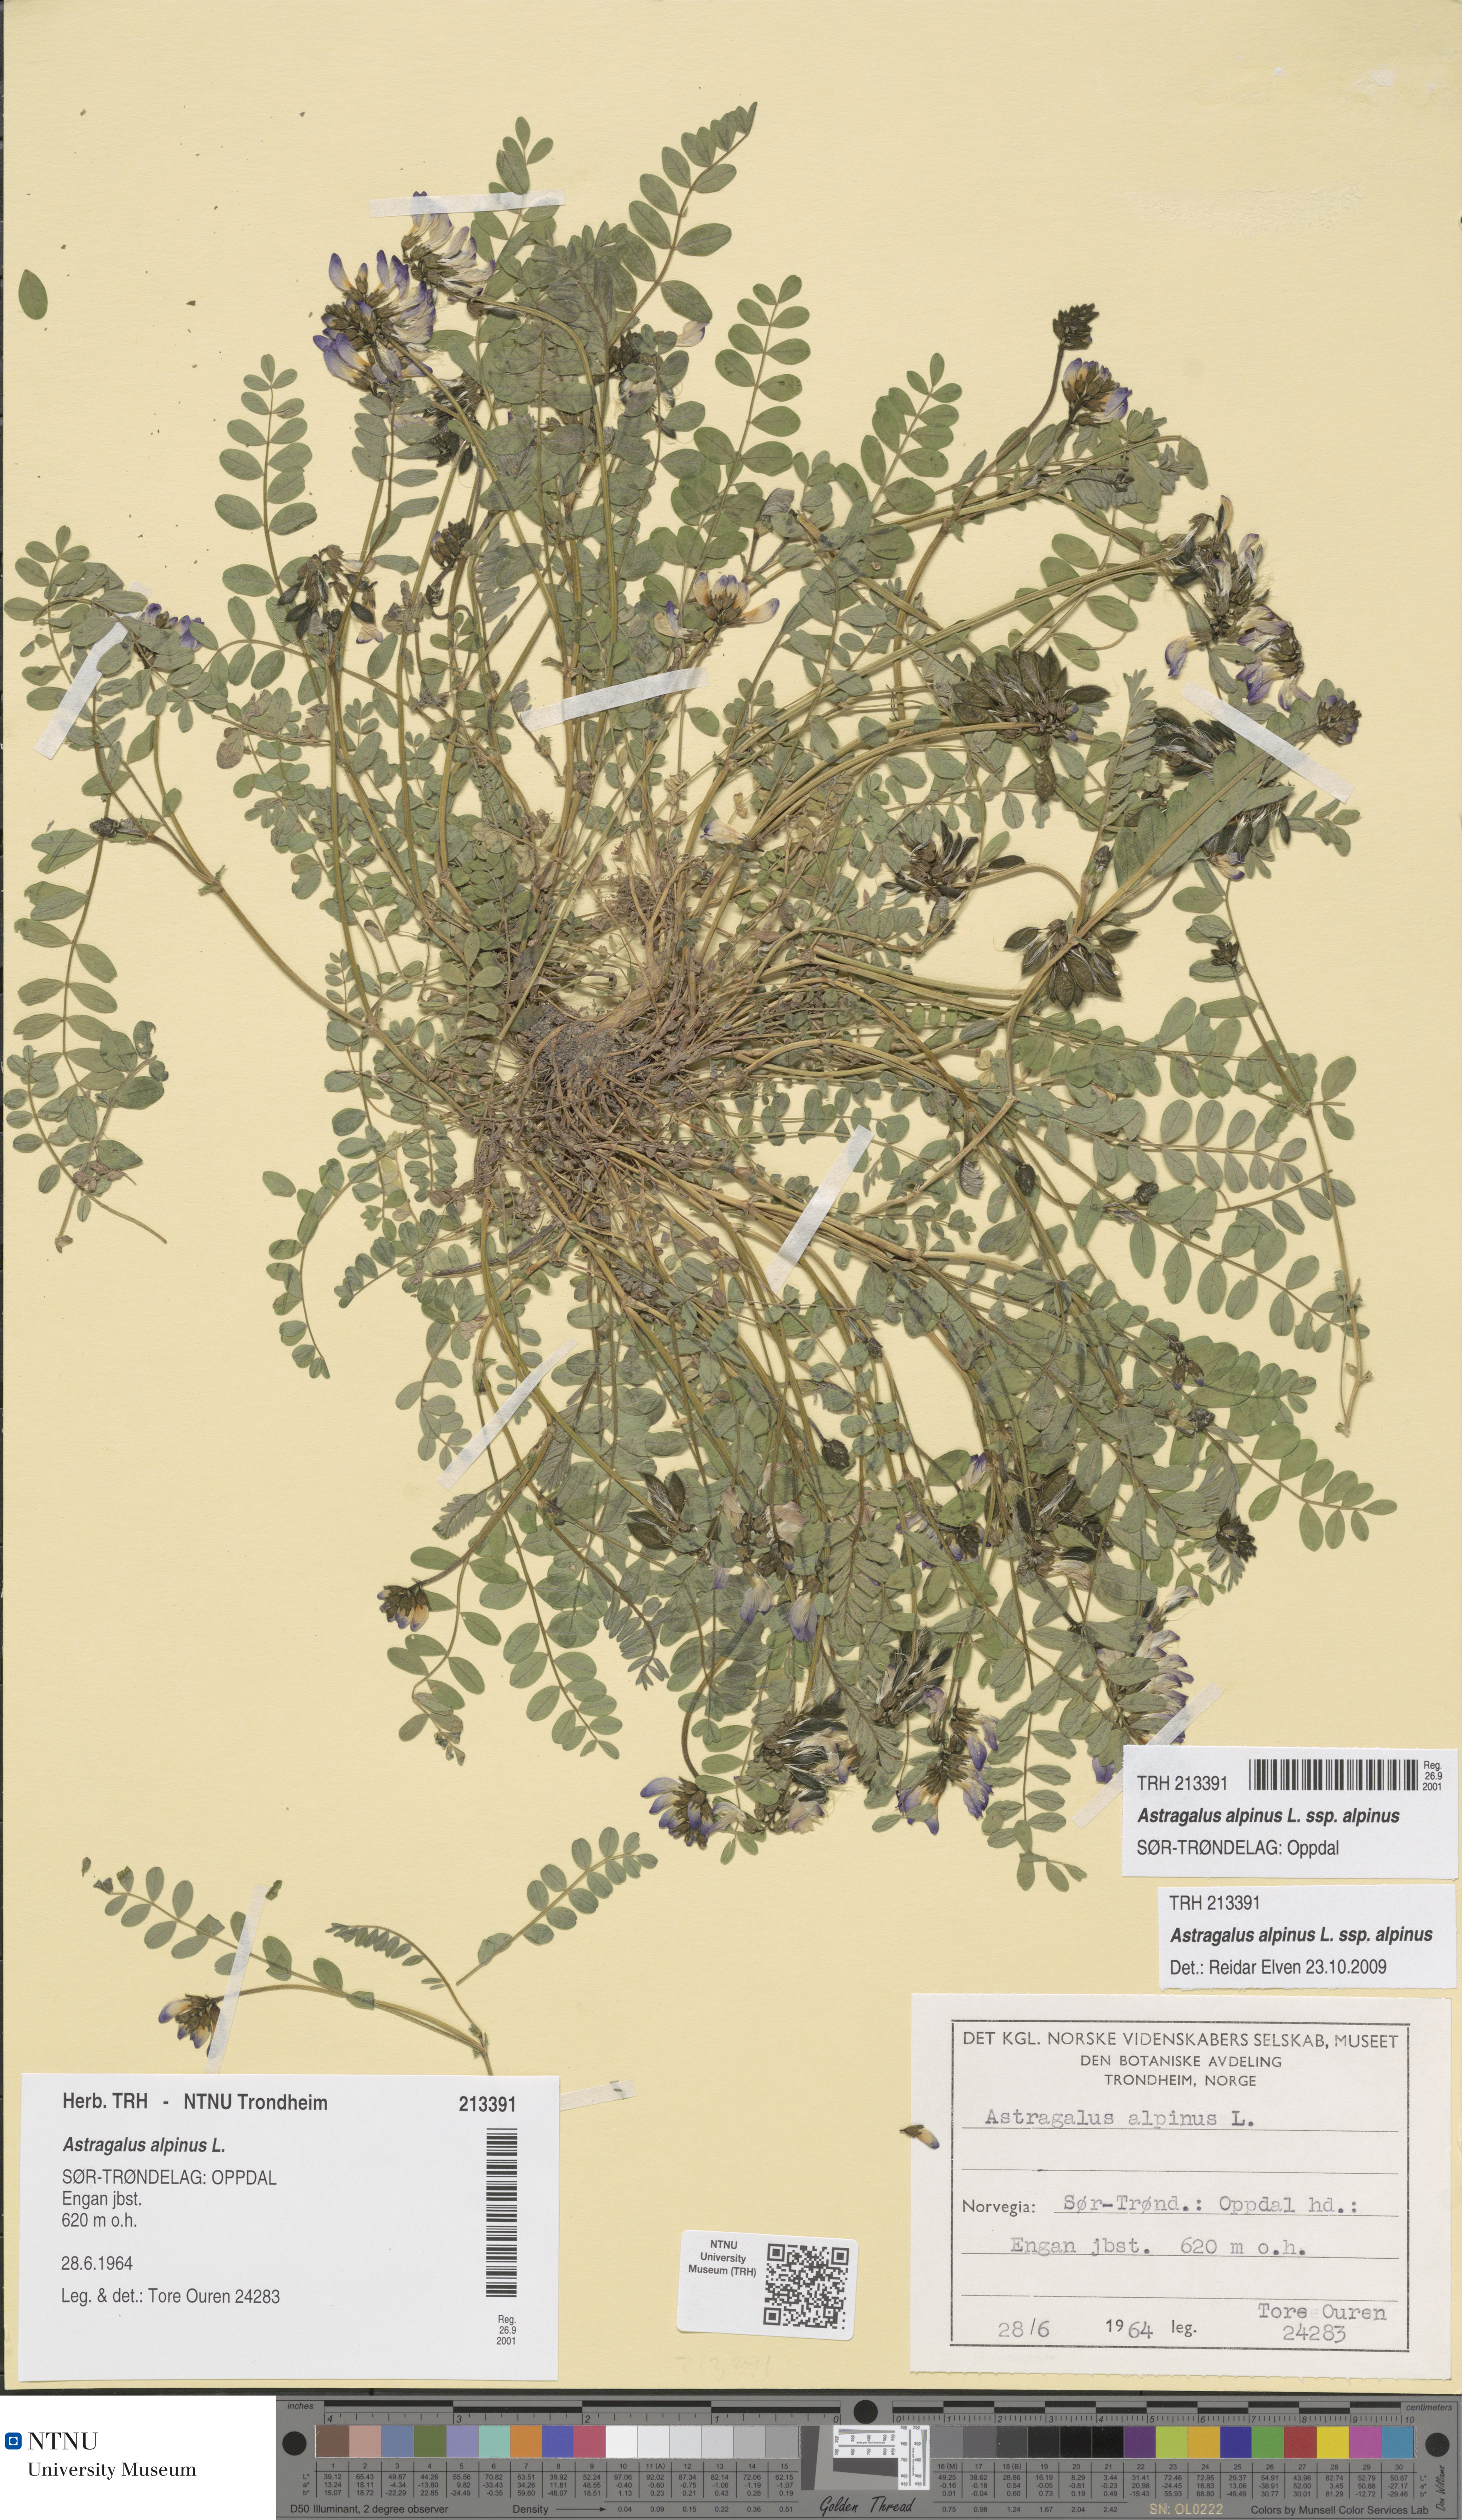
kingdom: Plantae
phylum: Tracheophyta
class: Magnoliopsida
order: Fabales
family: Fabaceae
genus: Astragalus
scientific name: Astragalus alpinus
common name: Alpine milk-vetch
